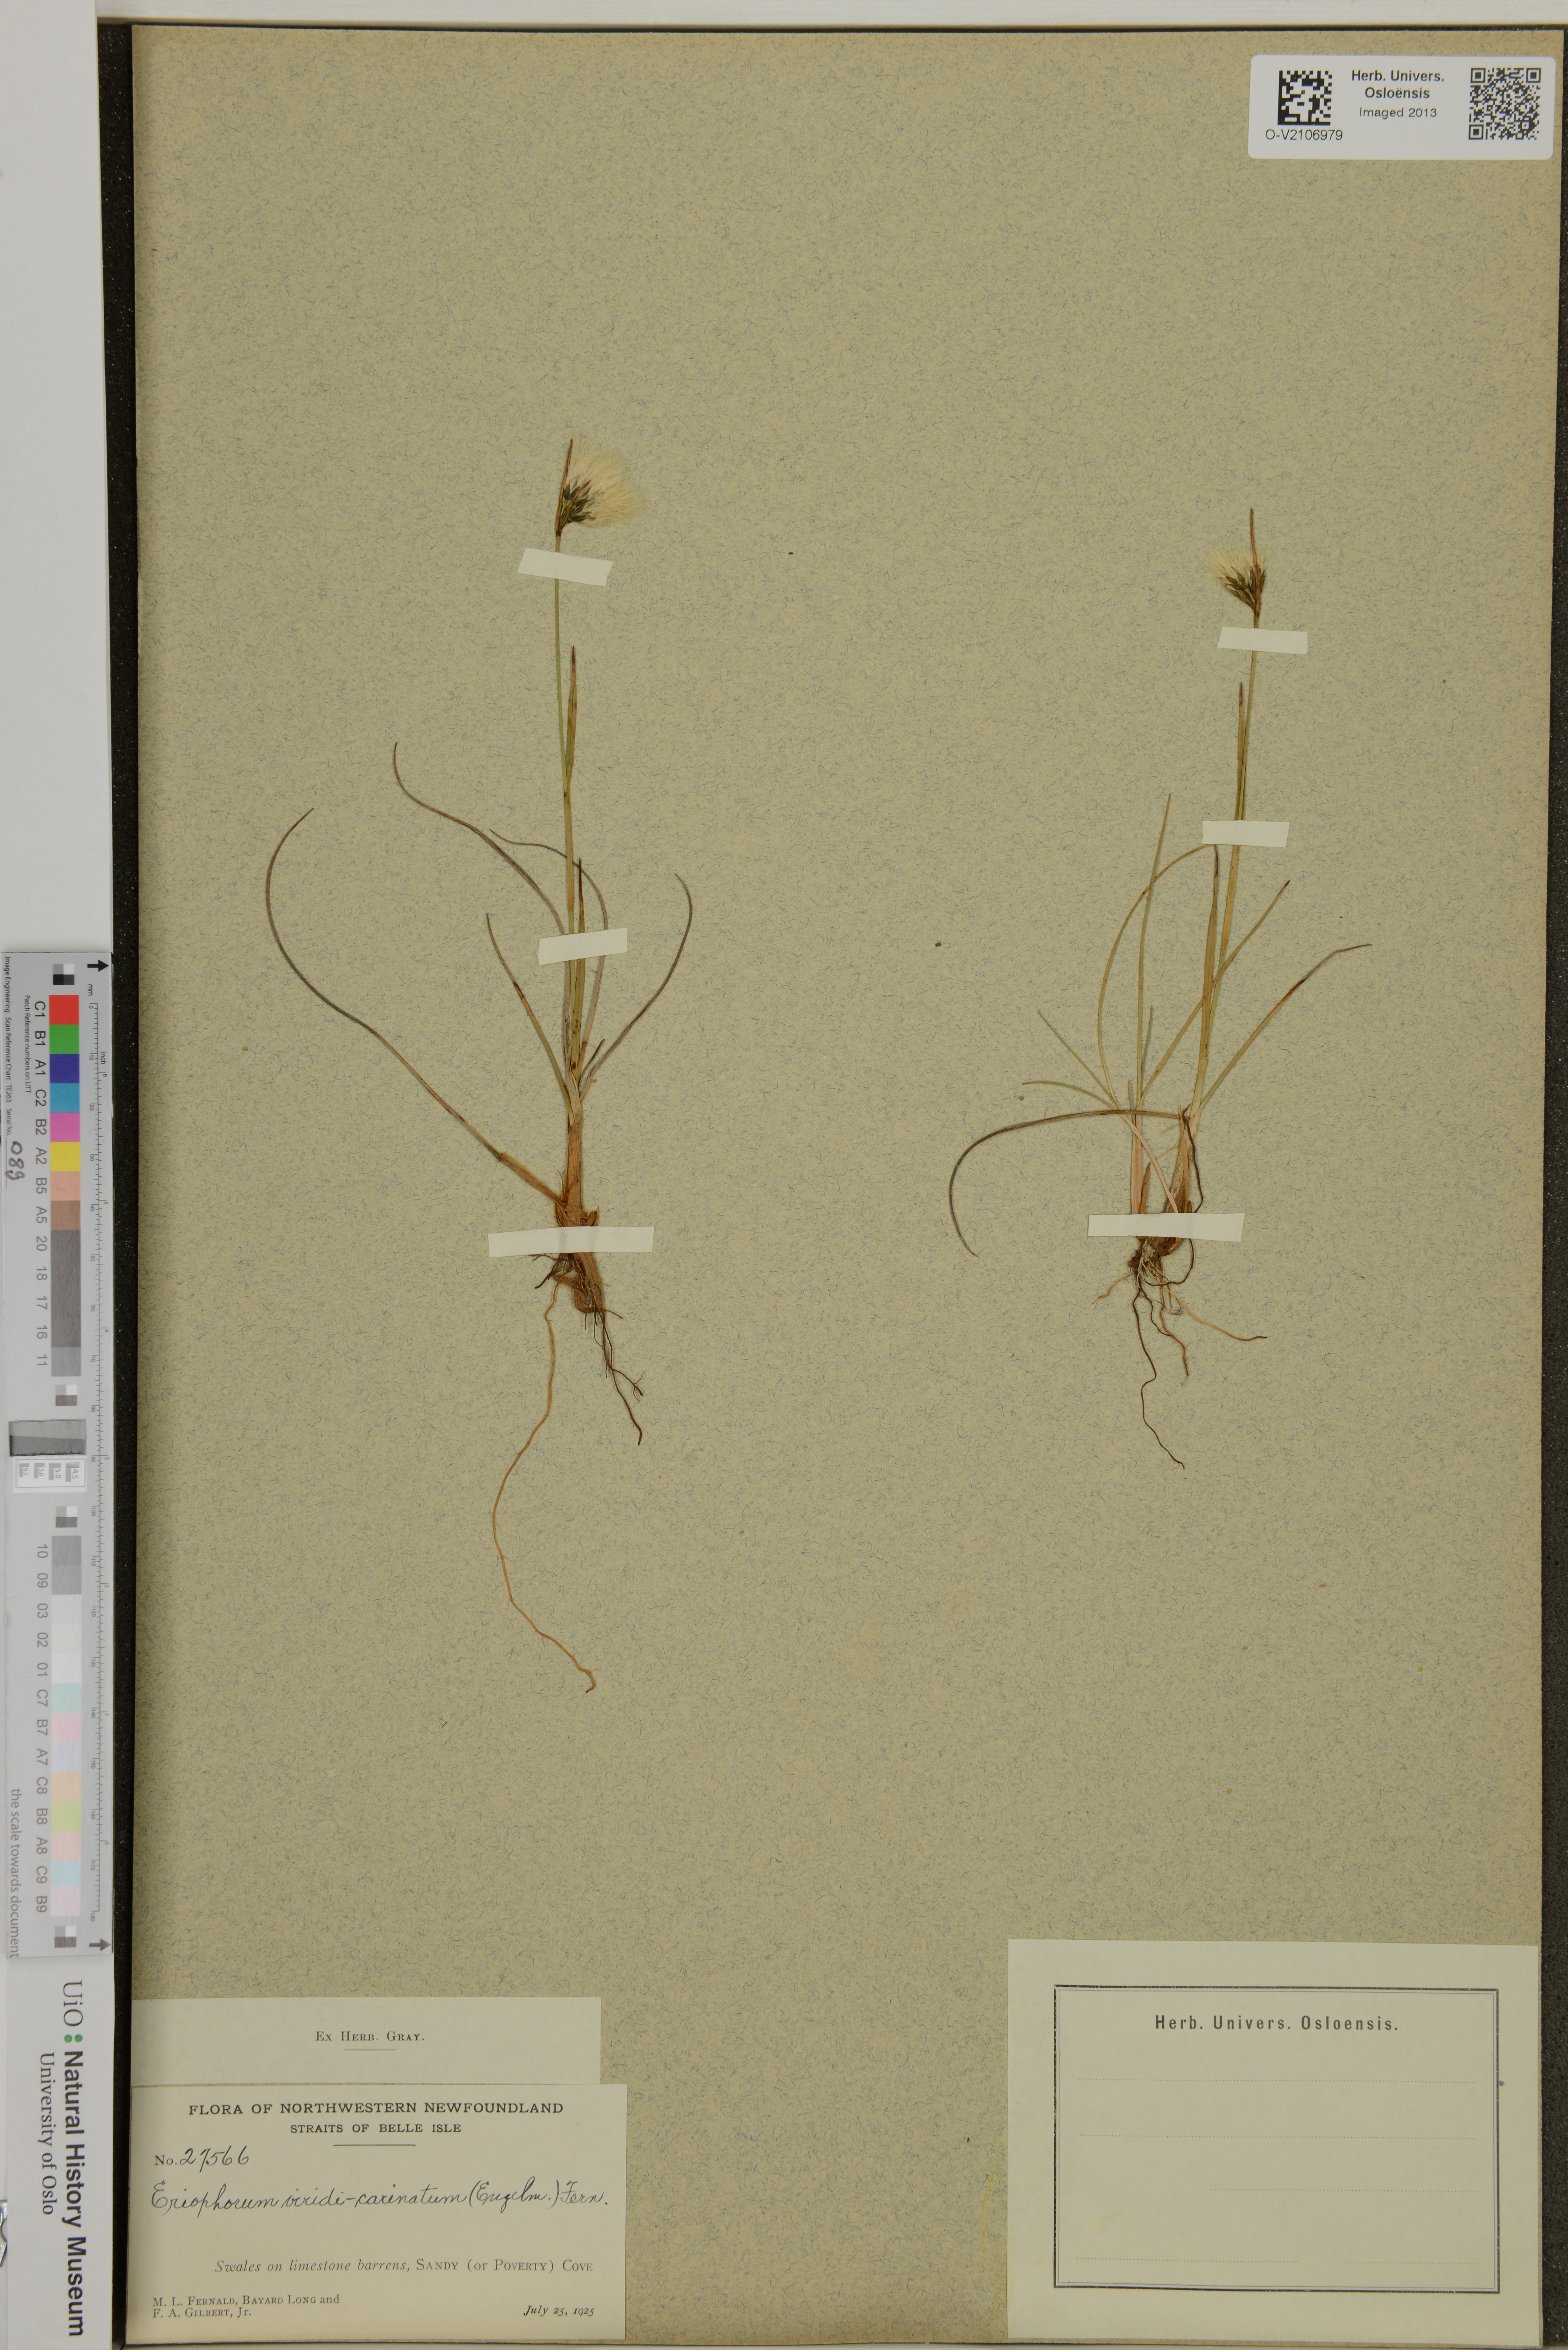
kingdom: Plantae
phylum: Tracheophyta
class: Liliopsida
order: Poales
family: Cyperaceae
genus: Eriophorum
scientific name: Eriophorum viridicarinatum
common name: Green-keeled cottongrass
